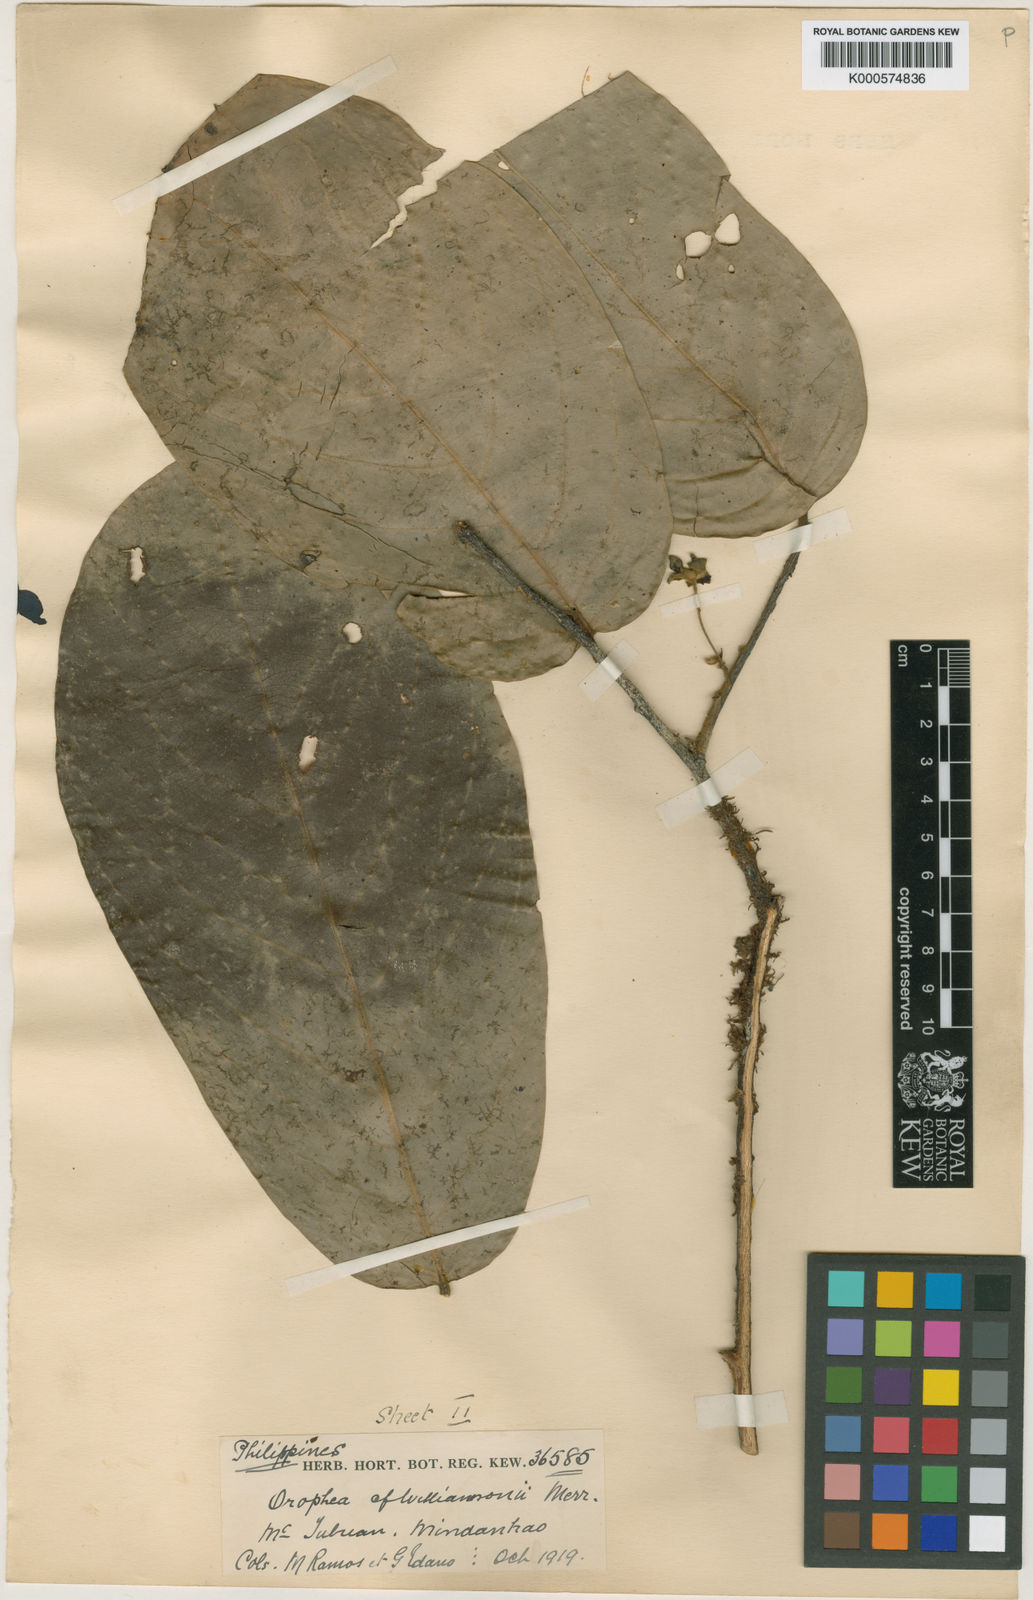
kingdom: Plantae
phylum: Tracheophyta
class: Magnoliopsida
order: Magnoliales
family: Annonaceae
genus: Orophea
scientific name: Orophea megalophylla
